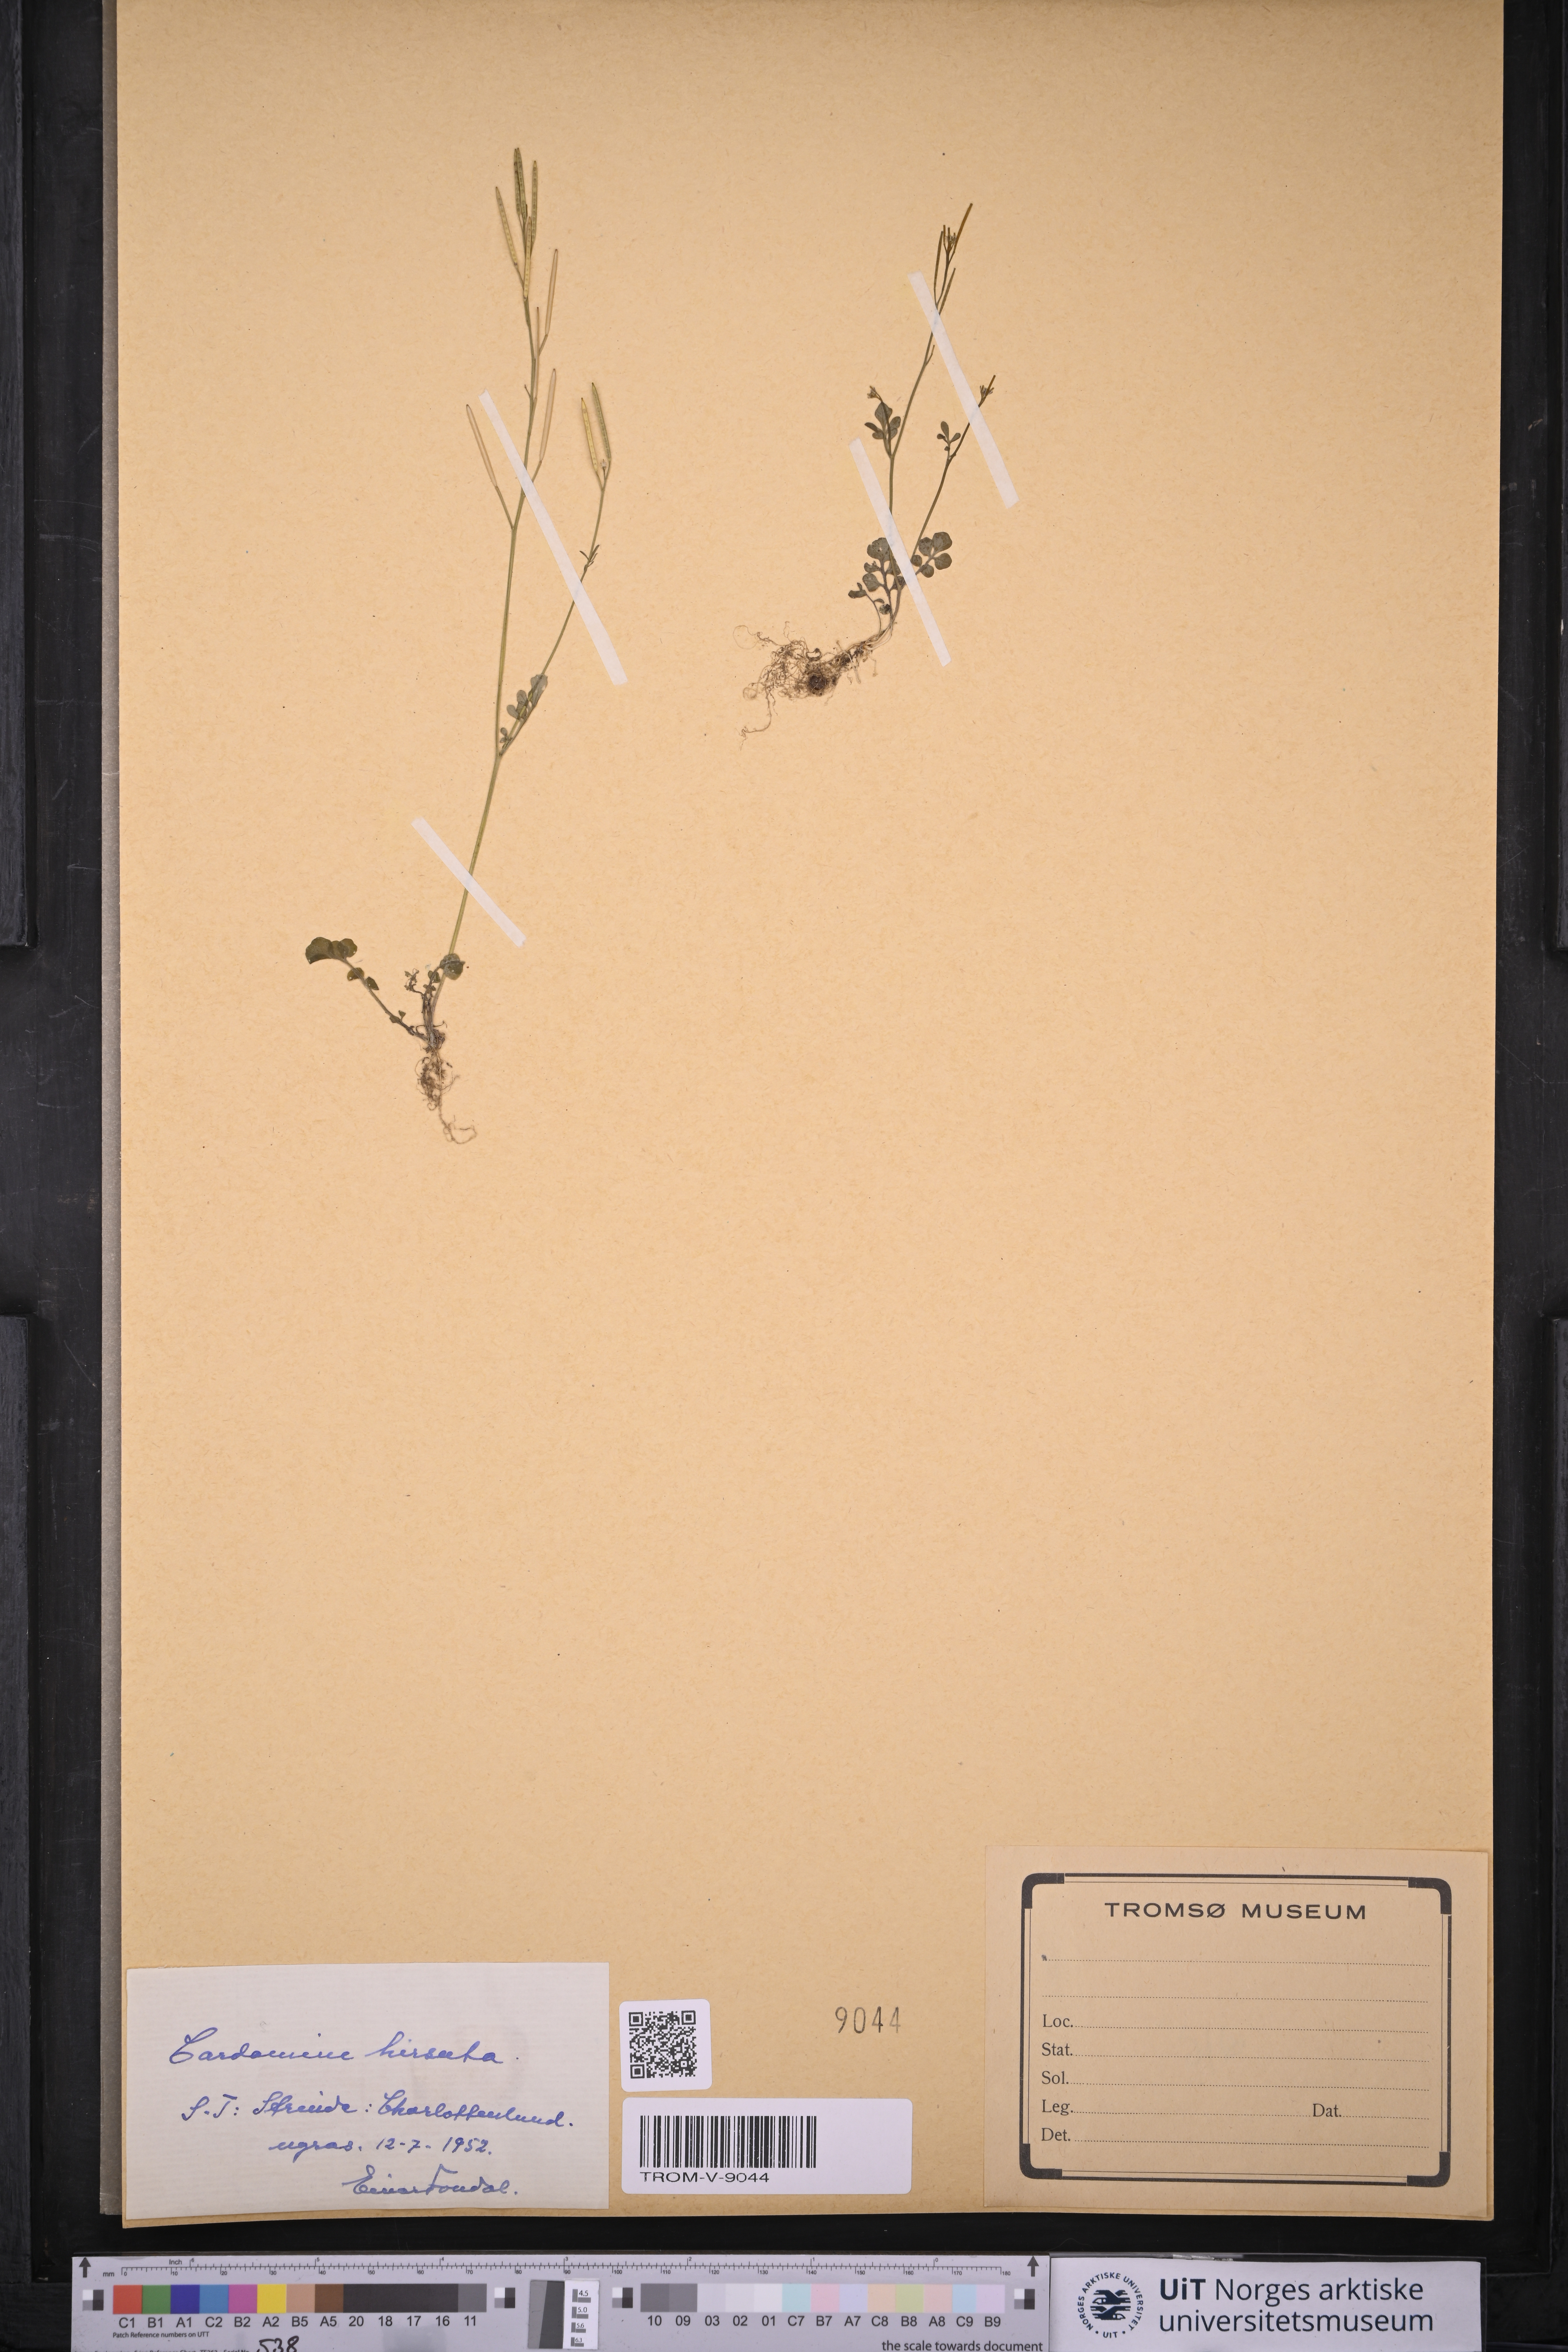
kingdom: Plantae
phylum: Tracheophyta
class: Magnoliopsida
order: Brassicales
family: Brassicaceae
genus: Cardamine
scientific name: Cardamine hirsuta
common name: Hairy bittercress
